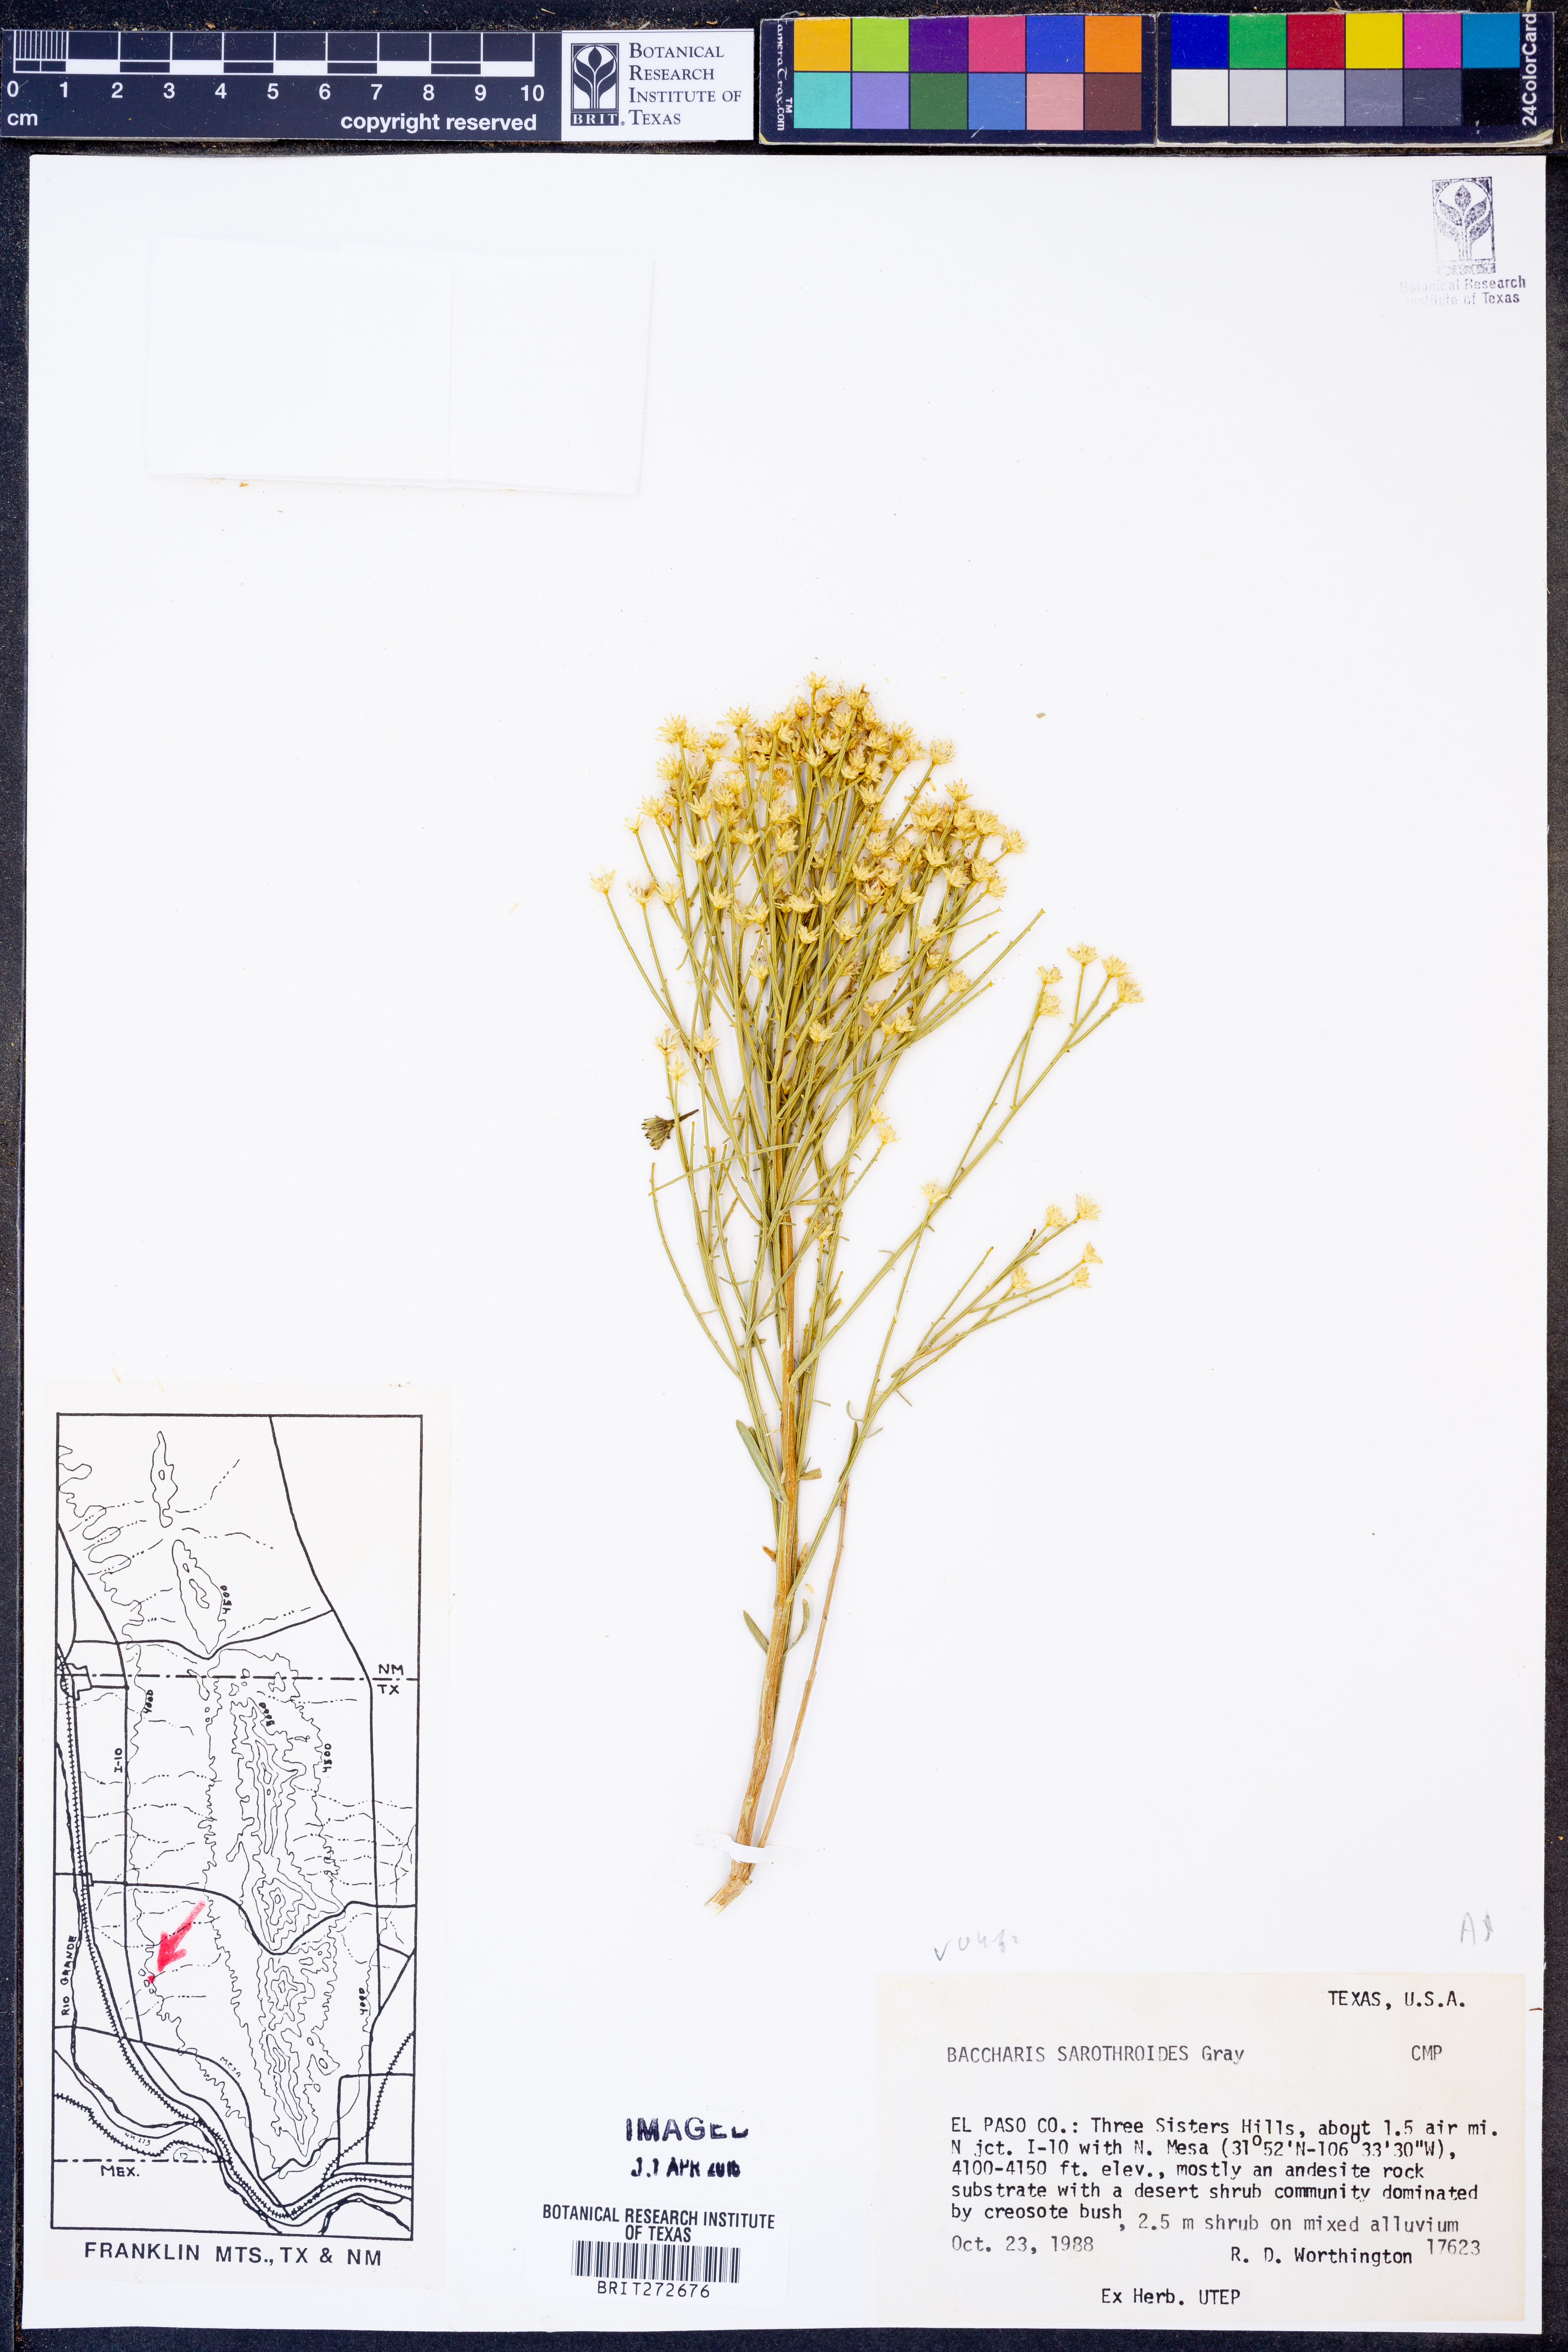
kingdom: Plantae
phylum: Tracheophyta
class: Magnoliopsida
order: Asterales
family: Asteraceae
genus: Baccharis
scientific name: Baccharis sarothroides
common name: Desert-broom
